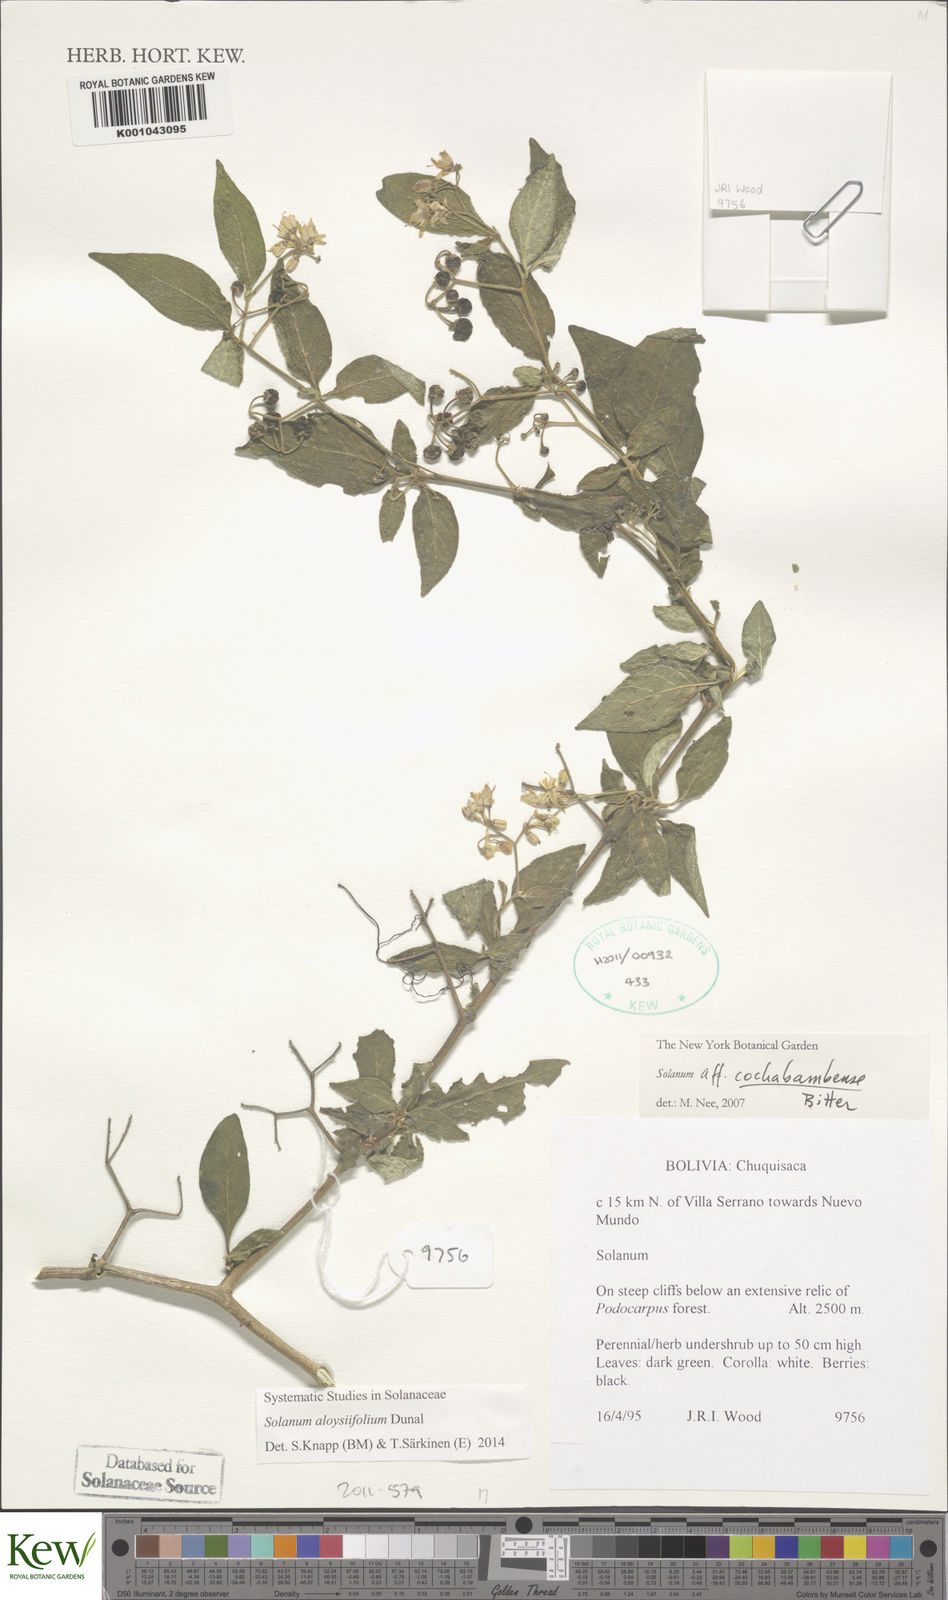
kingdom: Plantae
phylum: Tracheophyta
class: Magnoliopsida
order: Solanales
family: Solanaceae
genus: Solanum
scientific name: Solanum cochabambense
